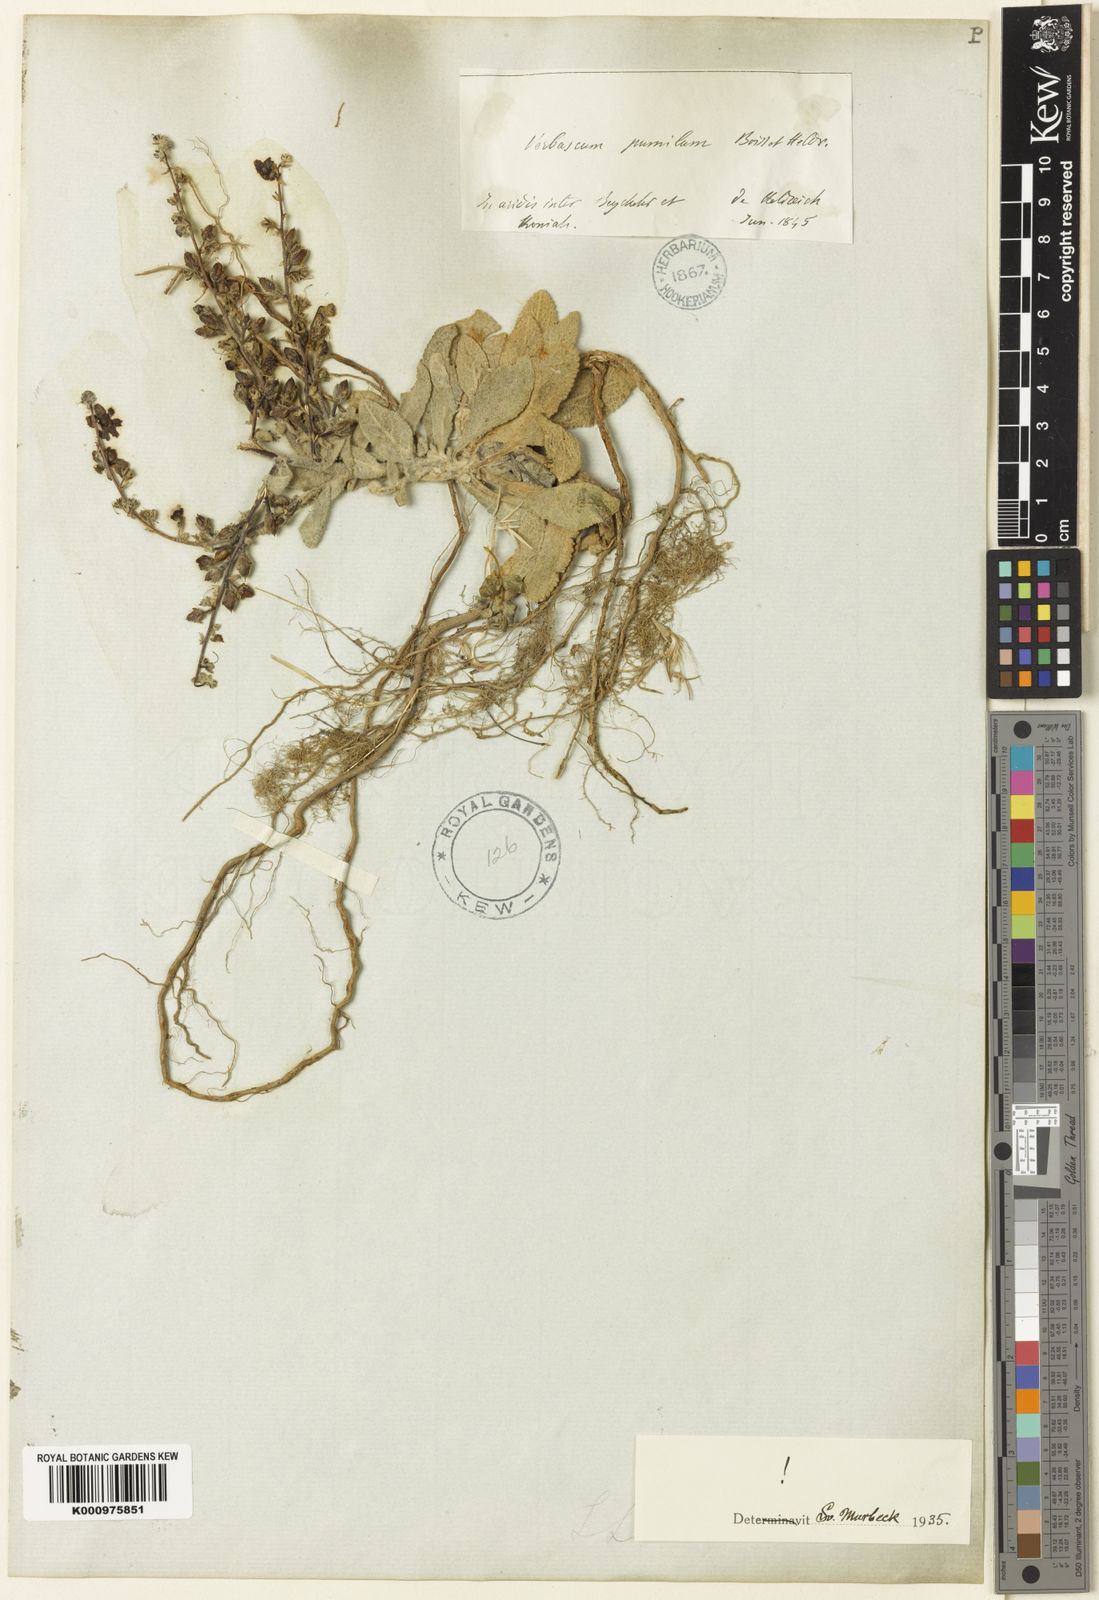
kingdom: Plantae
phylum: Tracheophyta
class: Magnoliopsida
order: Lamiales
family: Scrophulariaceae
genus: Verbascum
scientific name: Verbascum pumilum
